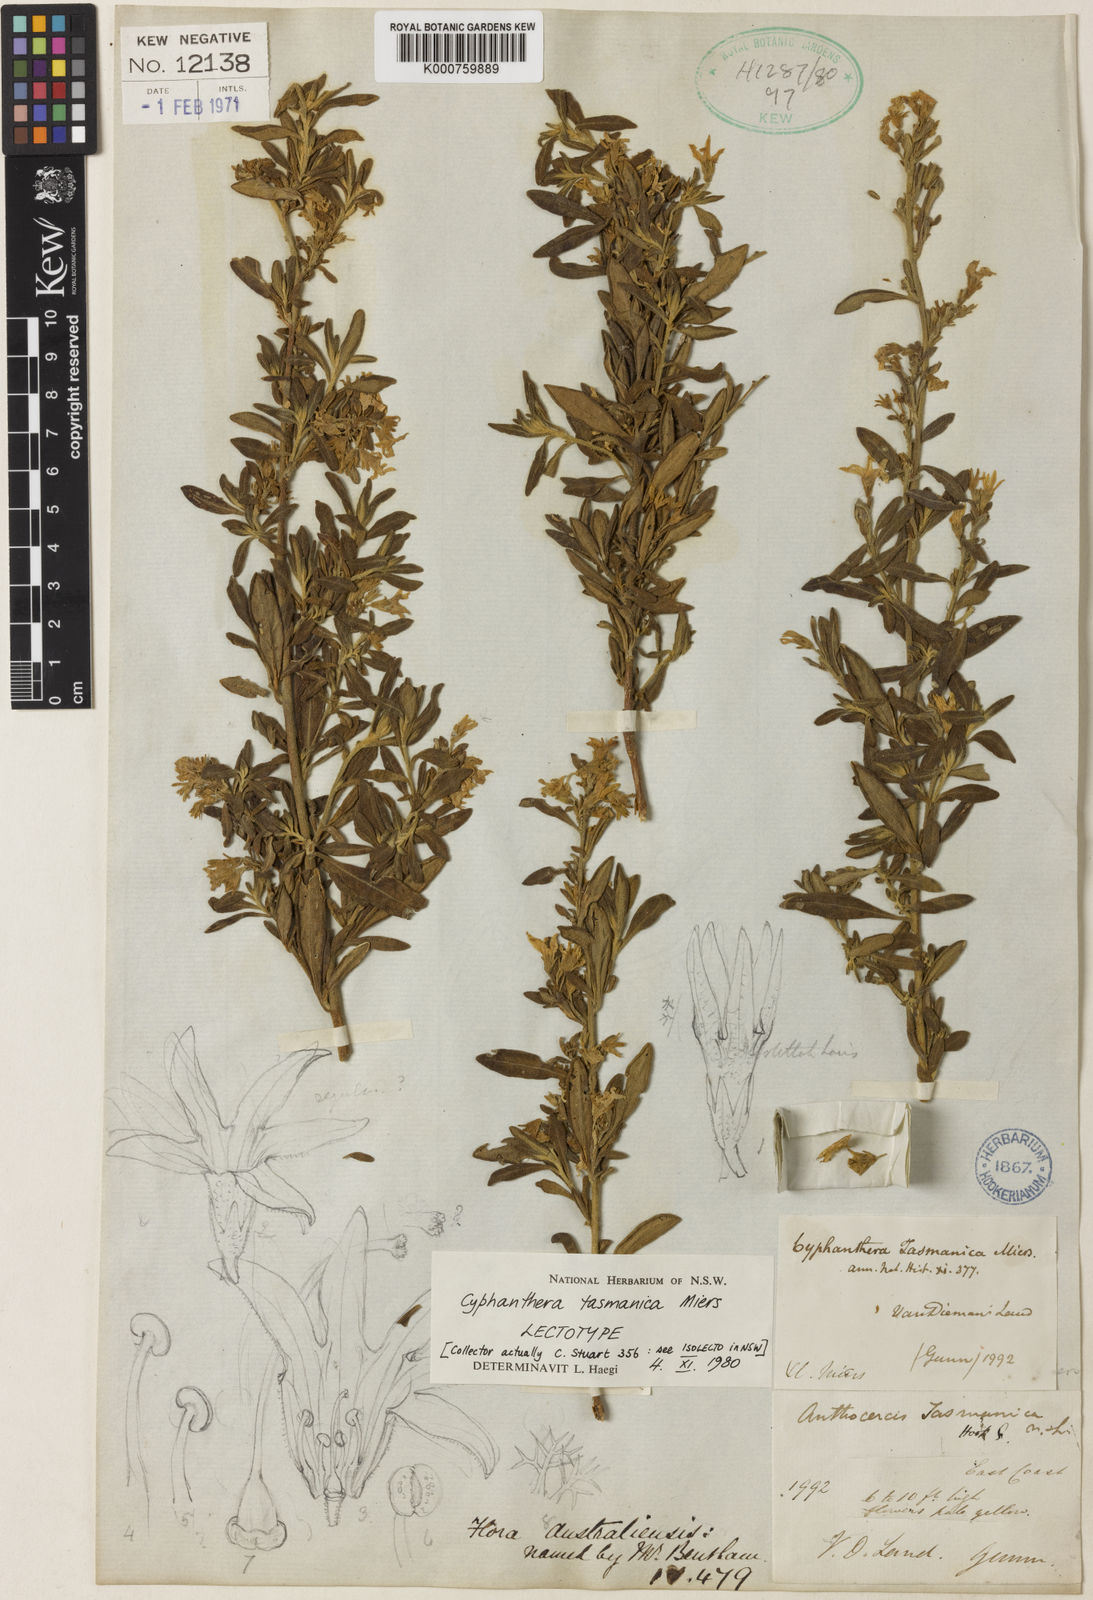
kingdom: Plantae
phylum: Tracheophyta
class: Magnoliopsida
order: Solanales
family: Solanaceae
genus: Cyphanthera
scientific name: Cyphanthera tasmanica
